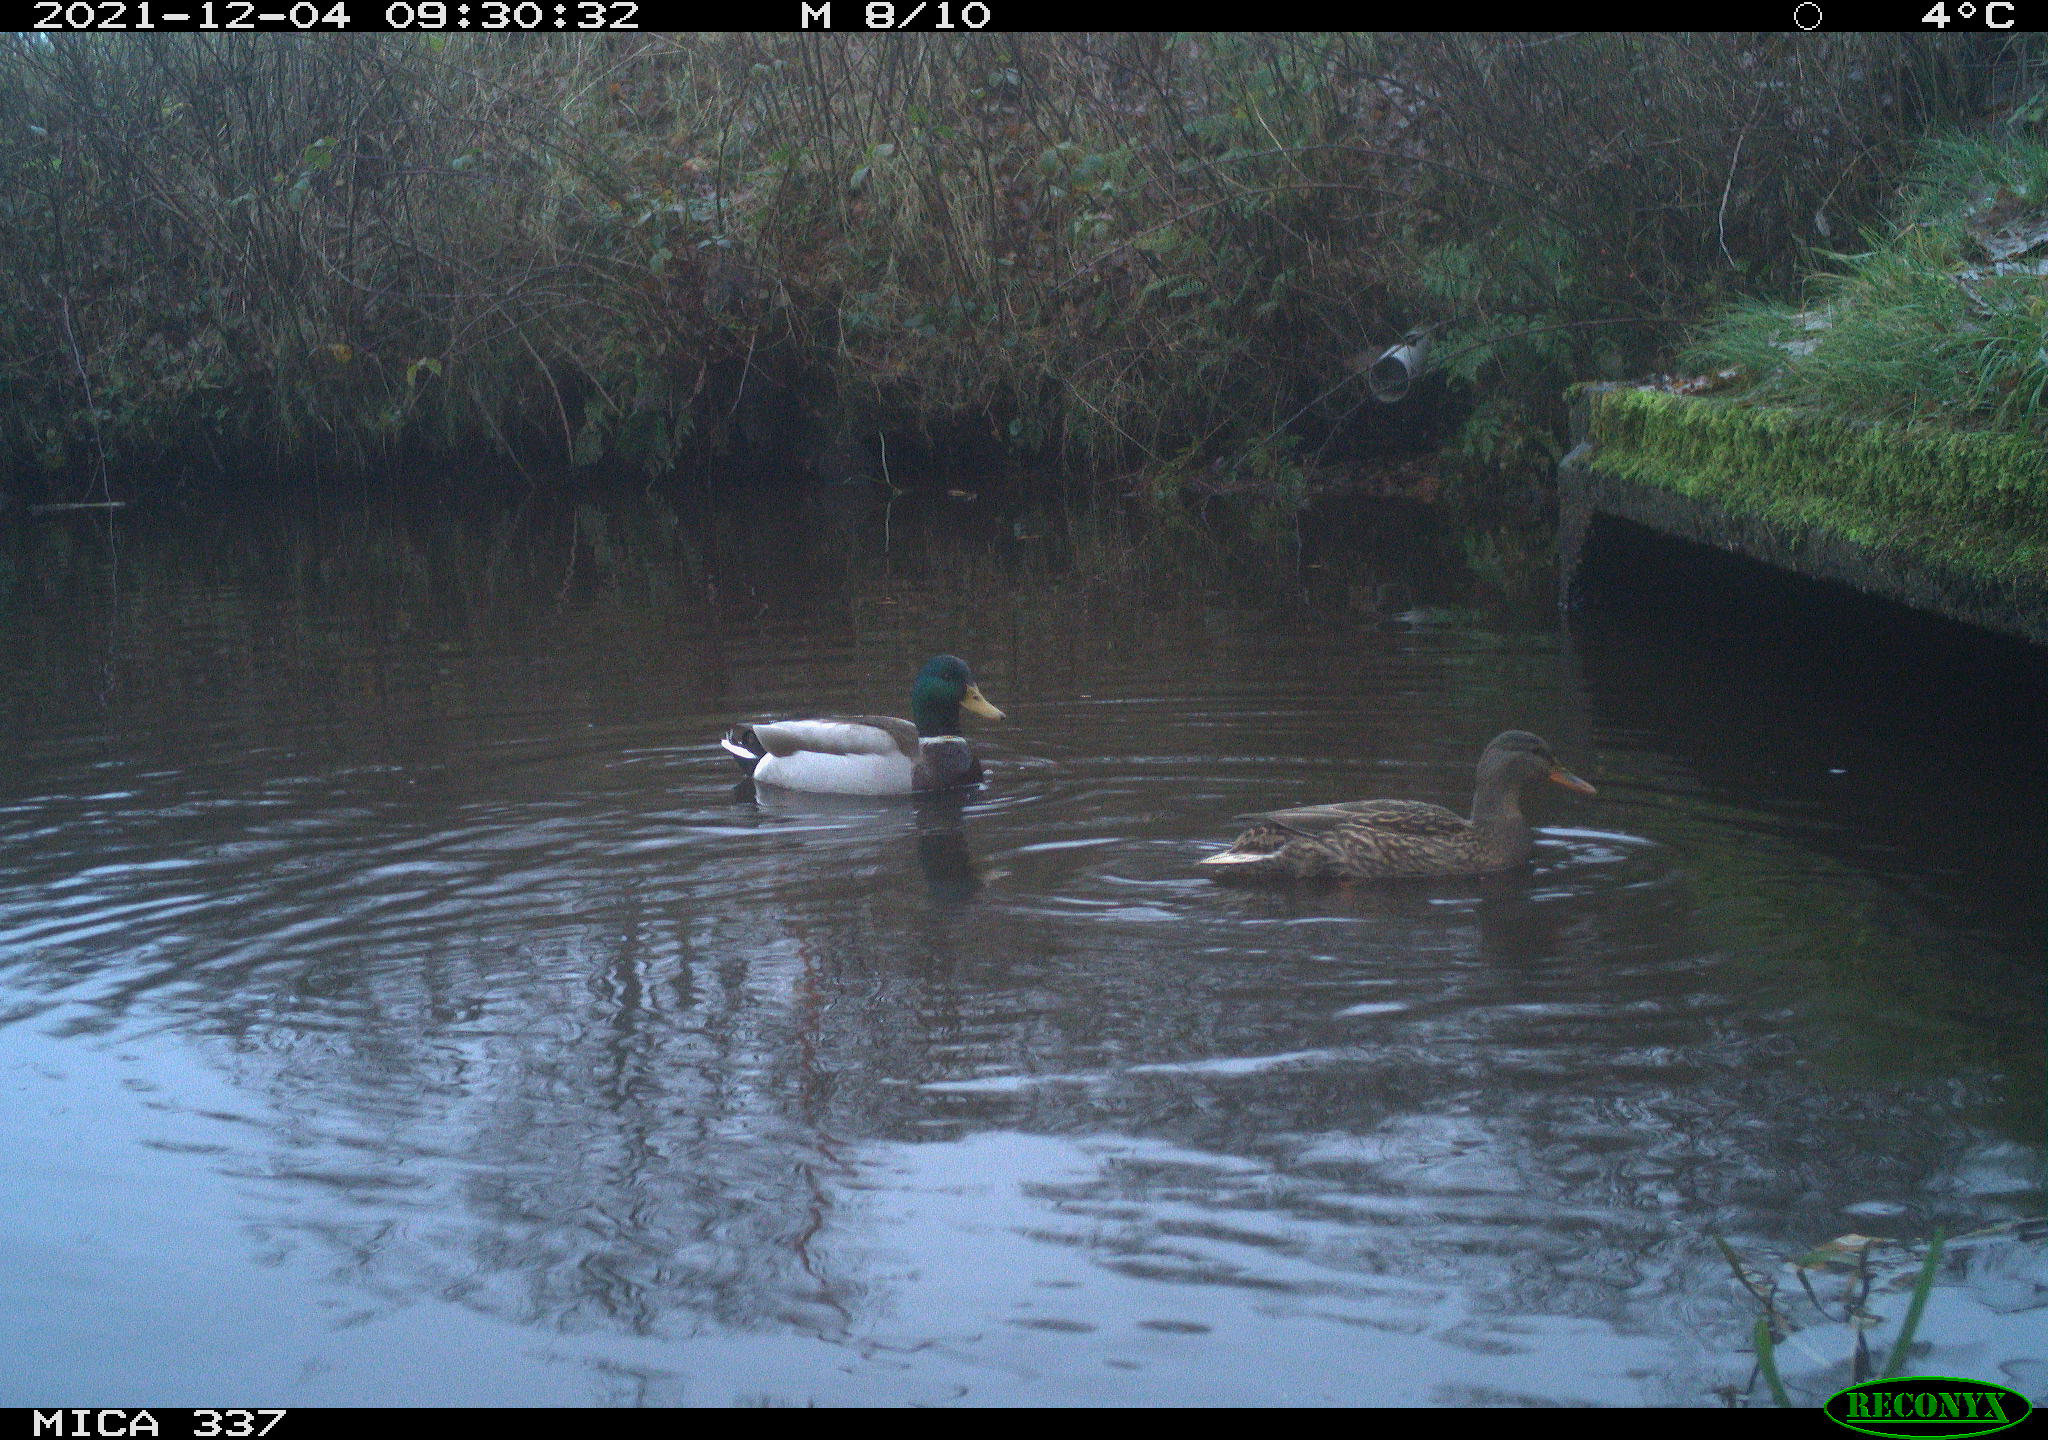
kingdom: Animalia
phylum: Chordata
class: Aves
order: Anseriformes
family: Anatidae
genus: Anas
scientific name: Anas platyrhynchos
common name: Mallard
